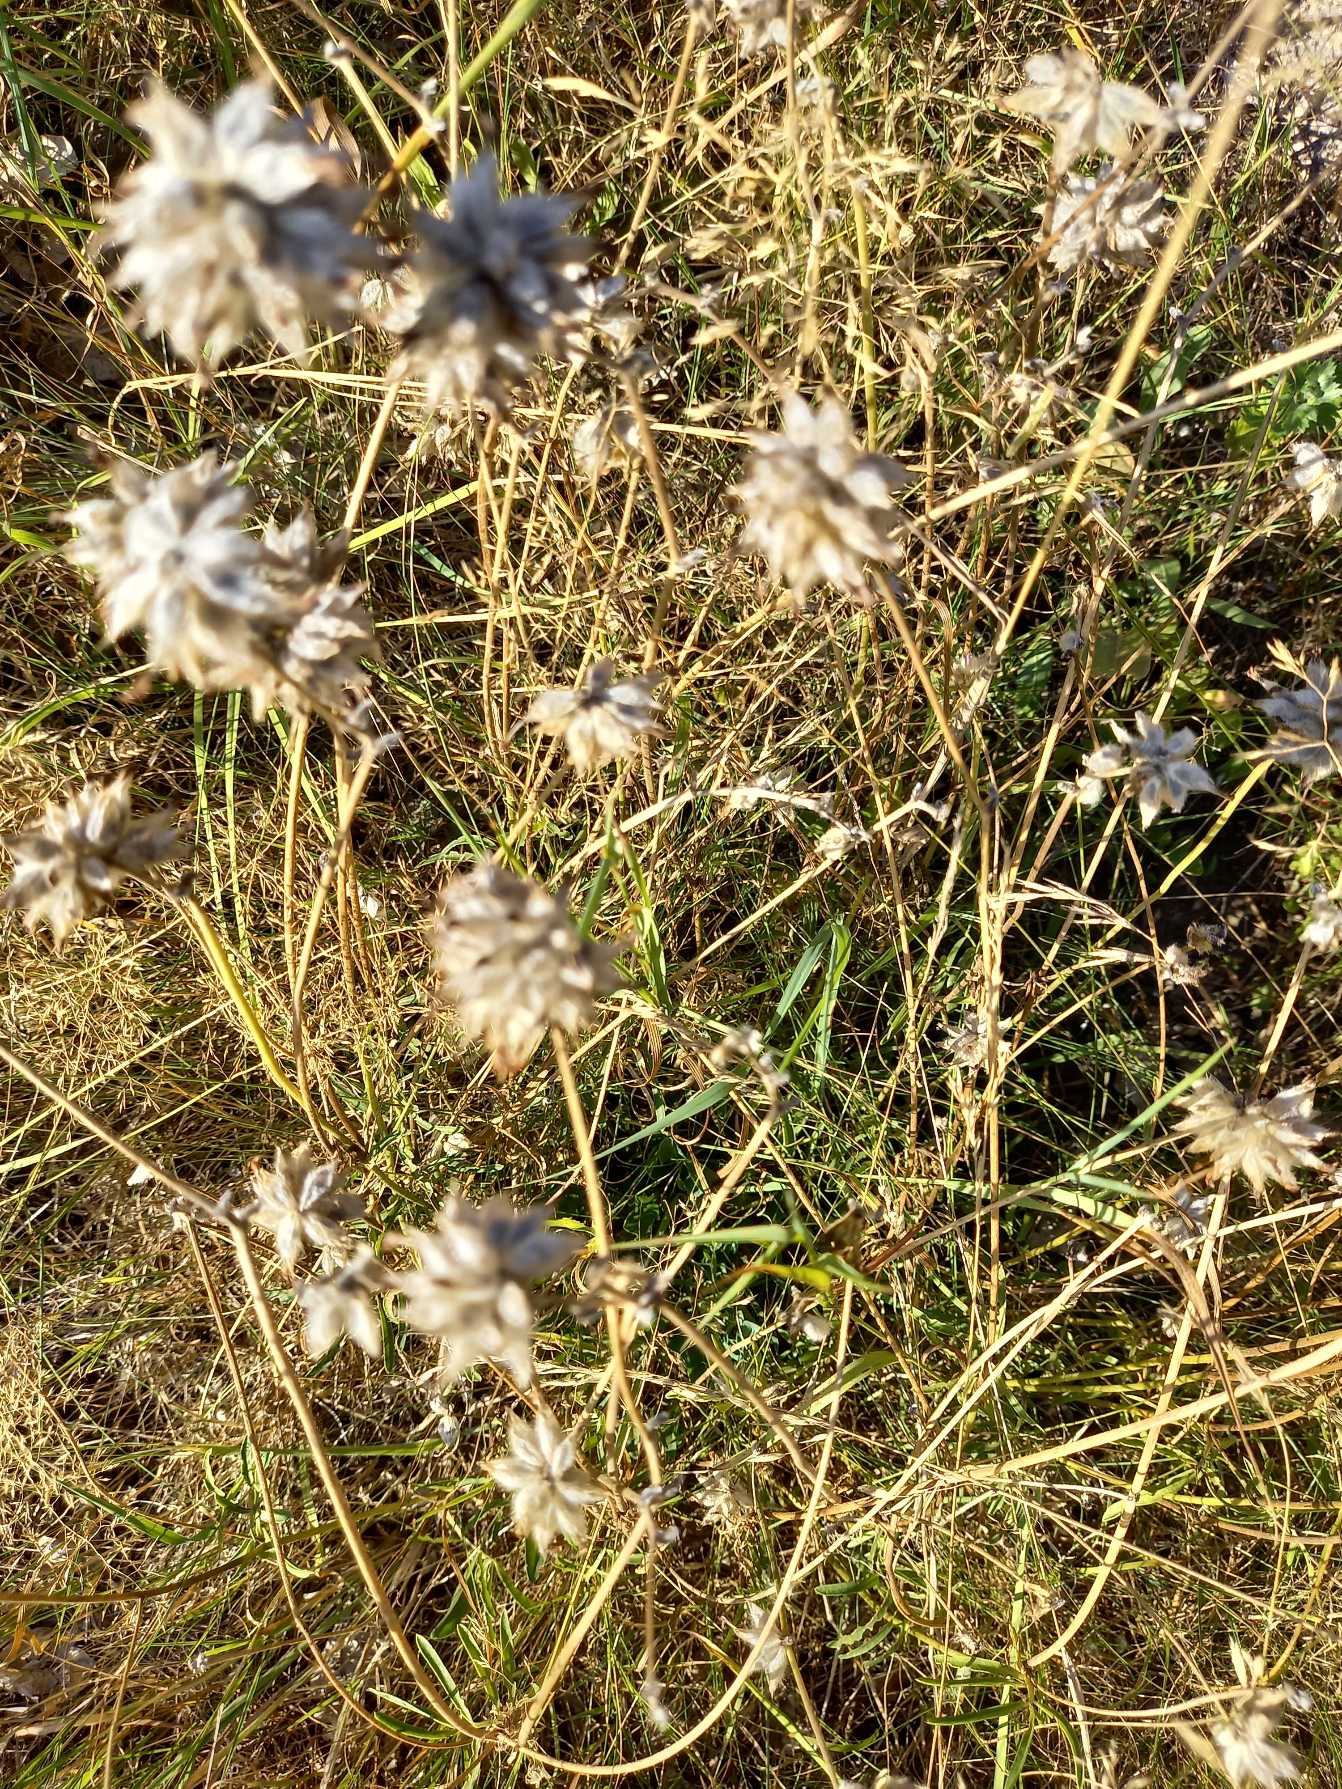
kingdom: Plantae
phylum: Tracheophyta
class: Magnoliopsida
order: Fabales
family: Fabaceae
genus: Anthyllis
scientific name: Anthyllis vulneraria
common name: Rundbælg
